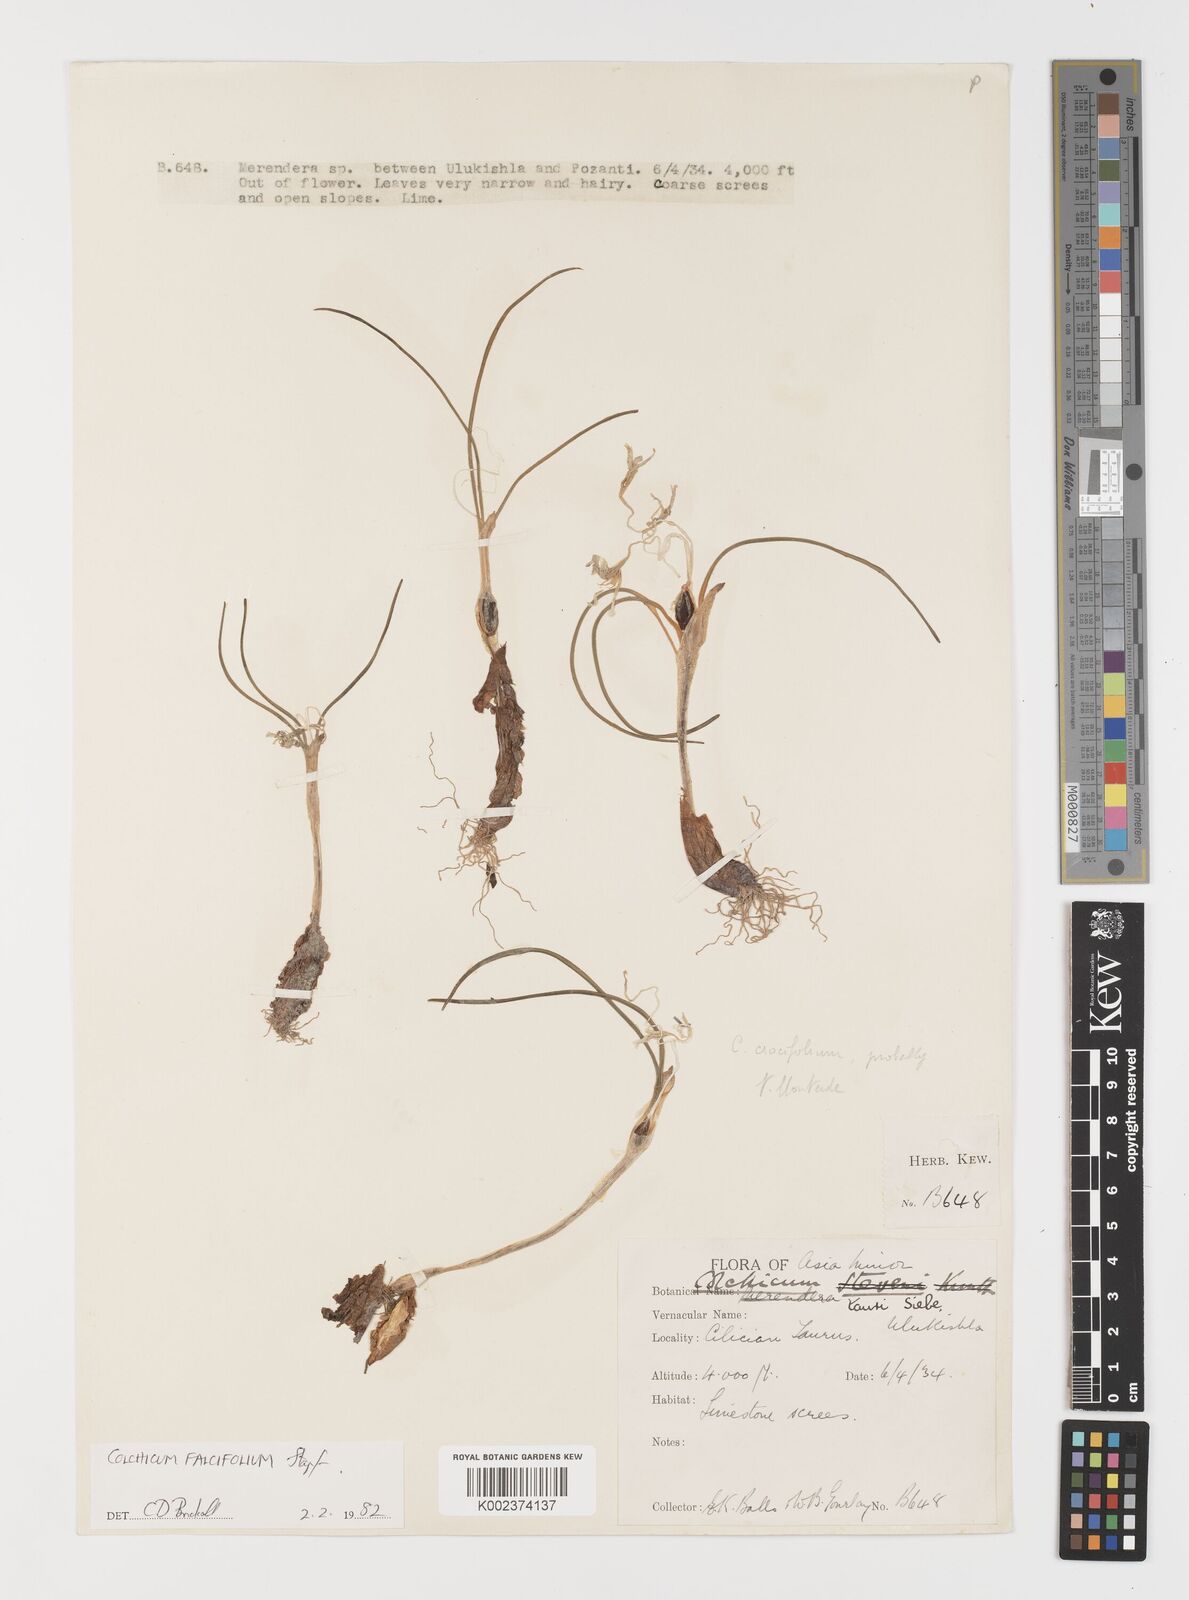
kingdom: Plantae
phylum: Tracheophyta
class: Liliopsida
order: Asparagales
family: Iridaceae
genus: Iris
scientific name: Iris caucasica
